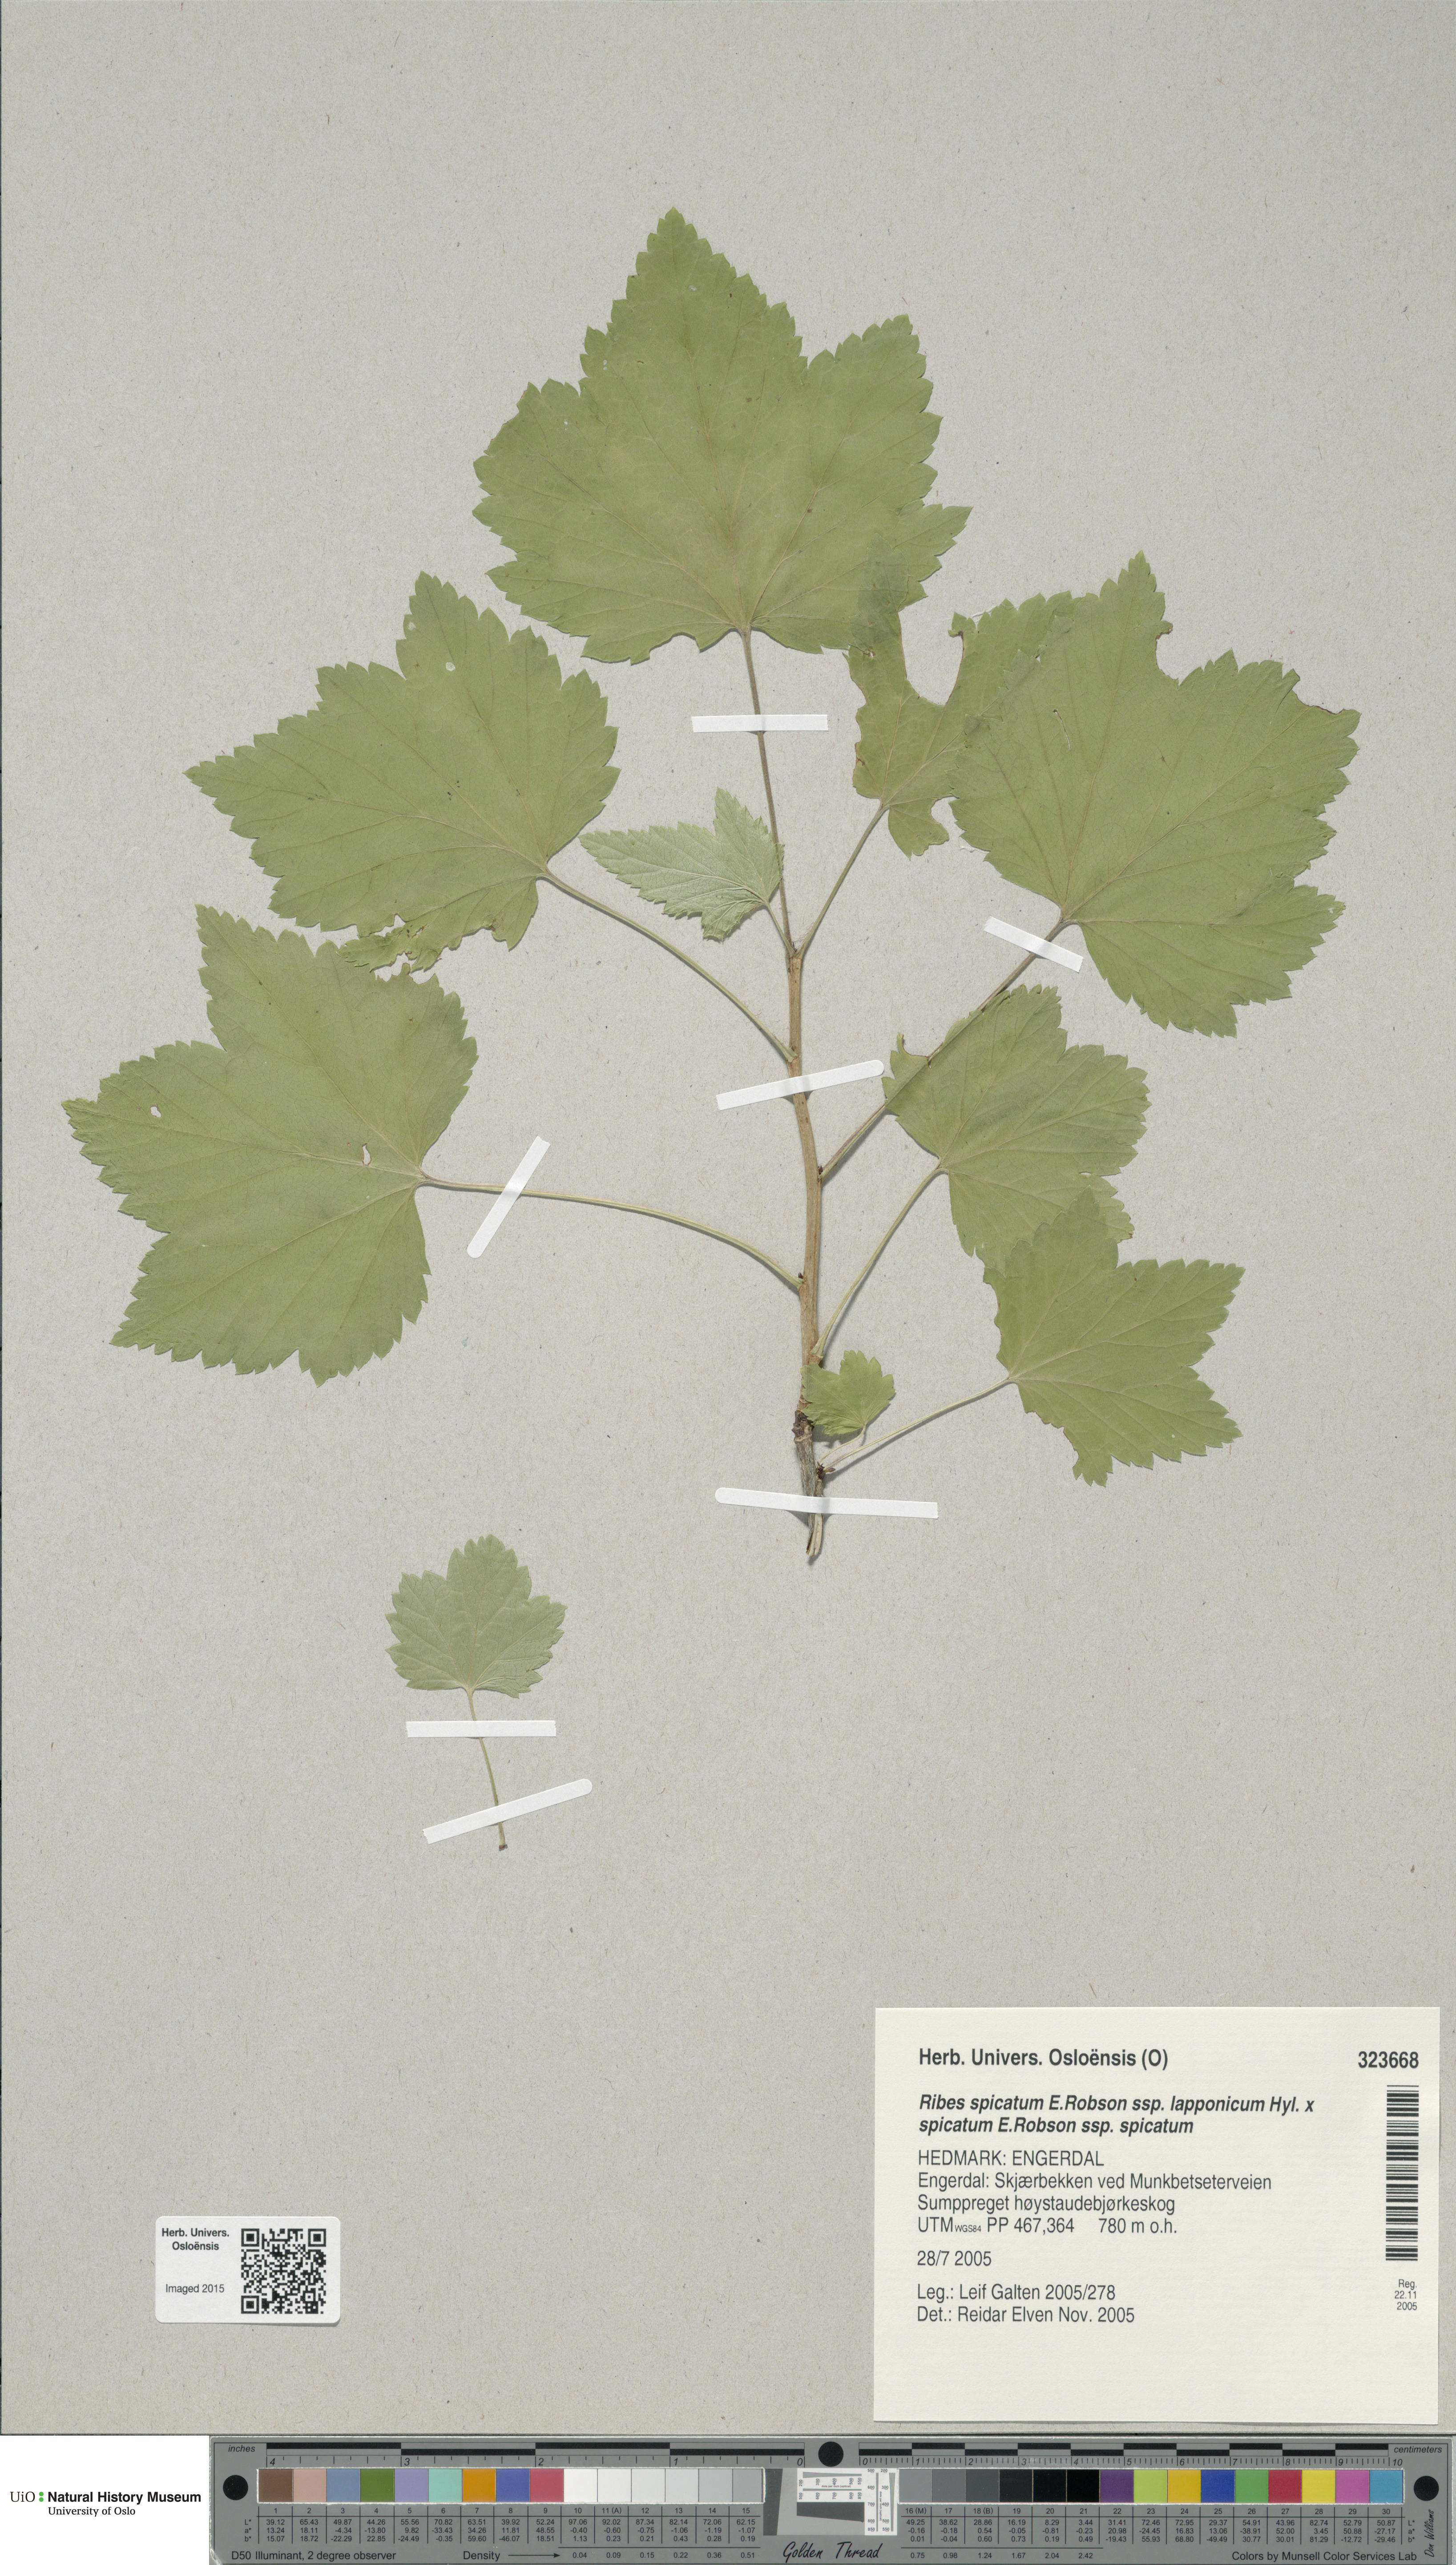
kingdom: Plantae
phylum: Tracheophyta
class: Magnoliopsida
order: Saxifragales
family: Grossulariaceae
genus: Ribes
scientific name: Ribes
